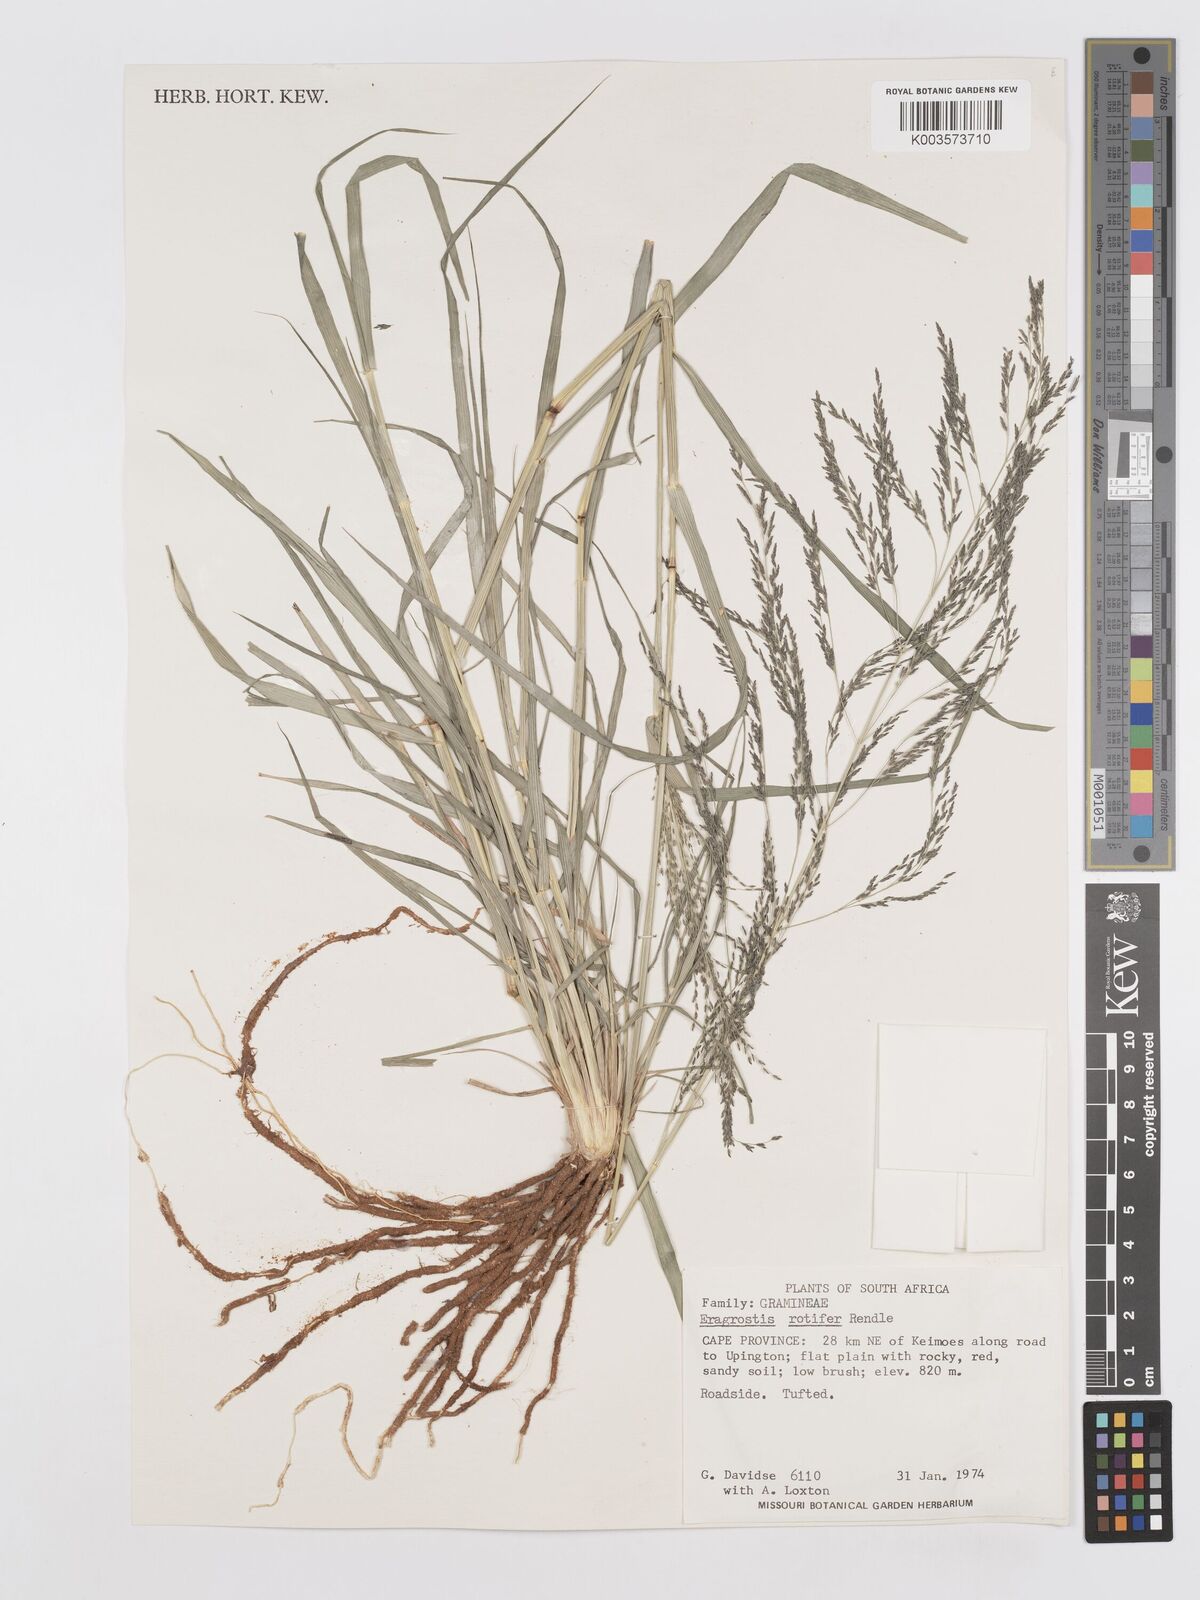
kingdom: Plantae
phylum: Tracheophyta
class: Liliopsida
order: Poales
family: Poaceae
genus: Eragrostis
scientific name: Eragrostis rotifer
